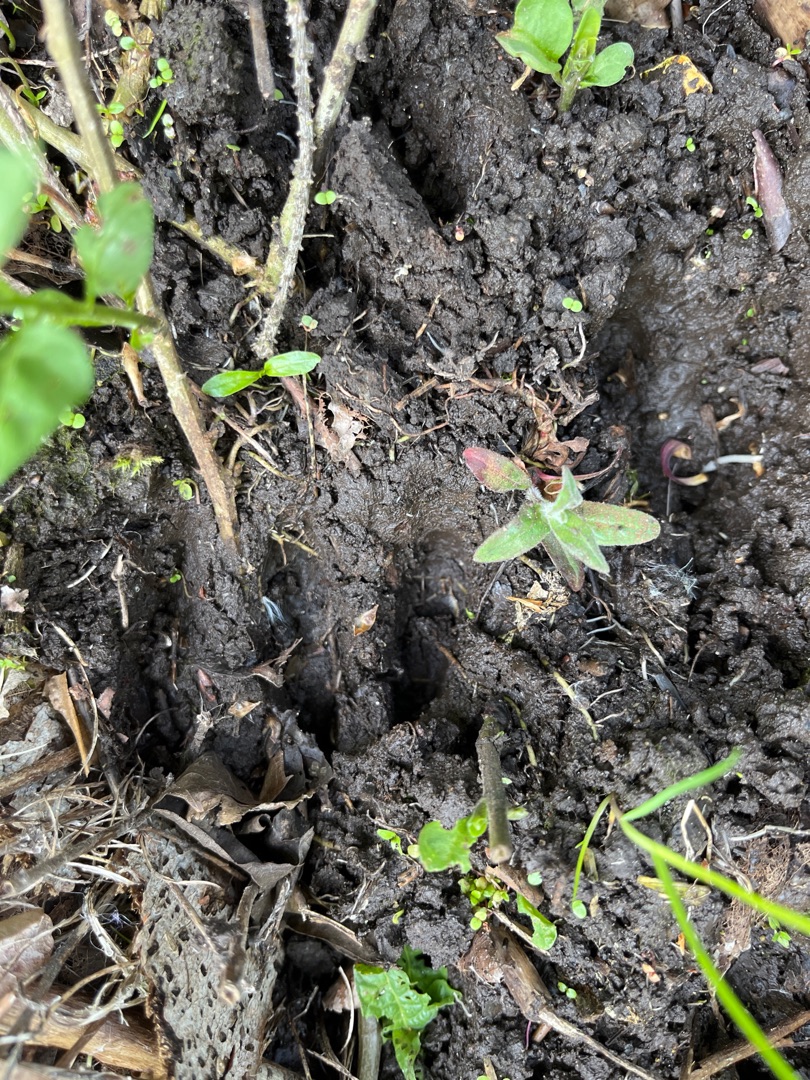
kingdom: Animalia
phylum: Chordata
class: Mammalia
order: Artiodactyla
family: Cervidae
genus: Capreolus
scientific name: Capreolus capreolus
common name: Rådyr
